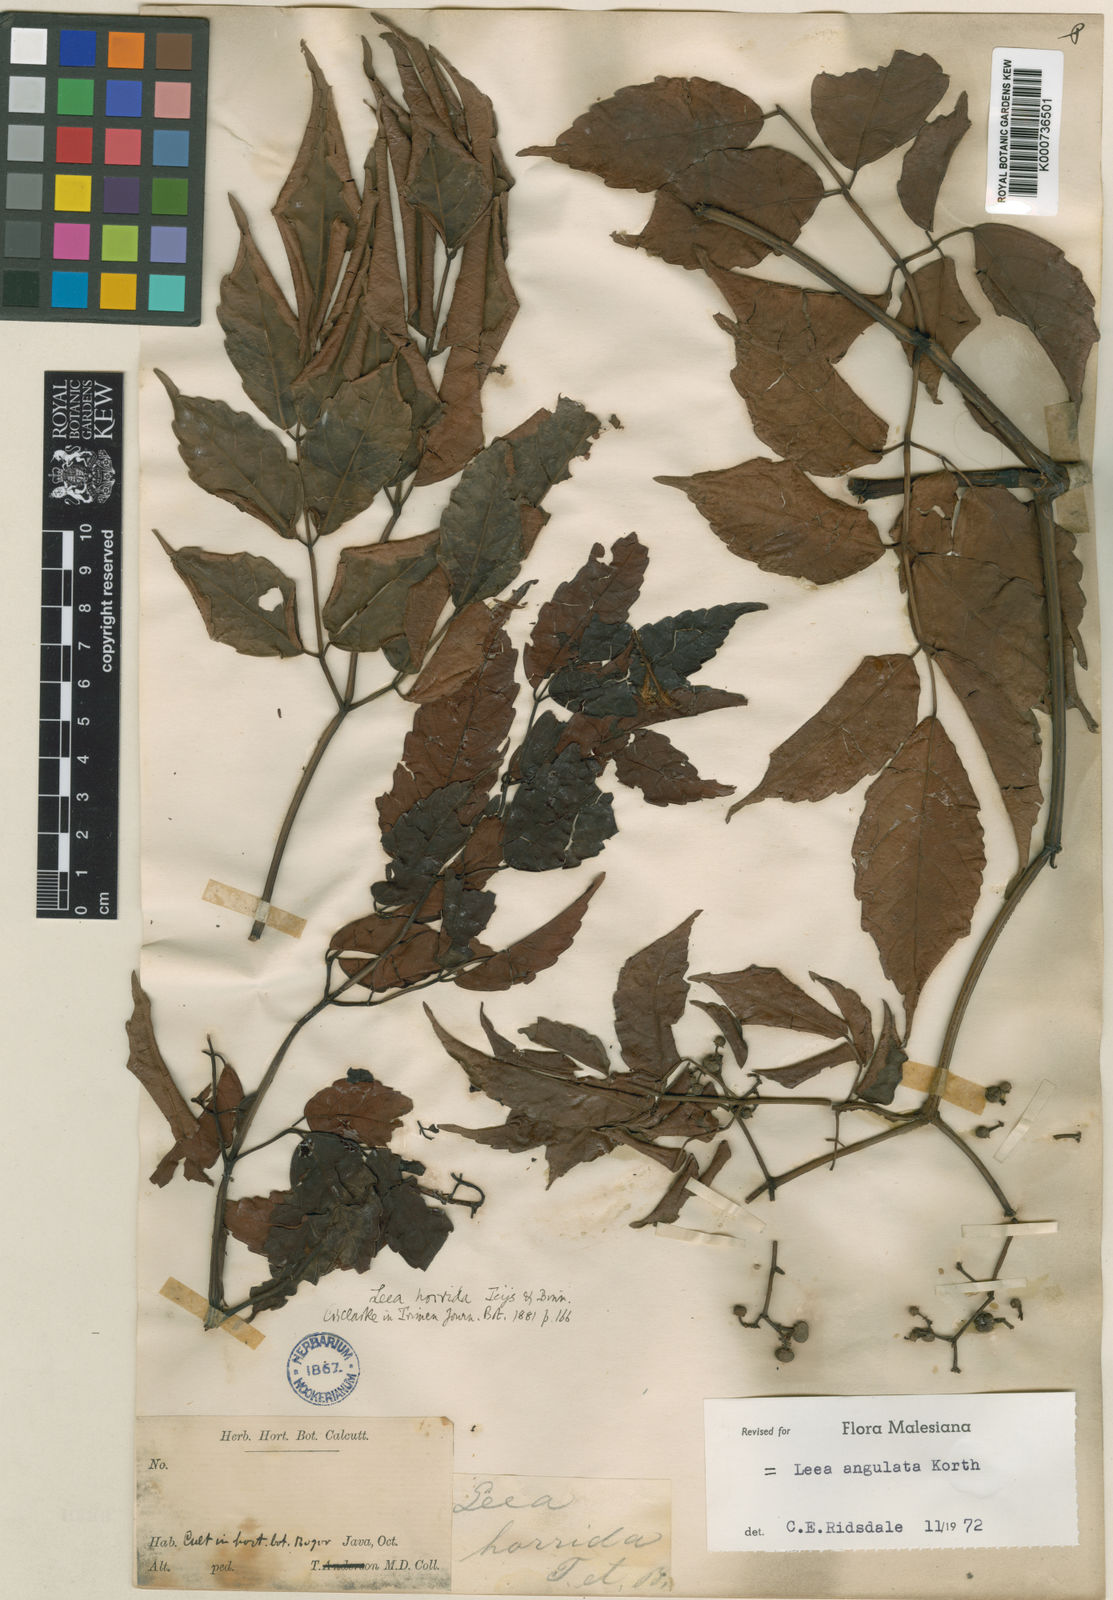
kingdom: Plantae
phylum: Tracheophyta
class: Magnoliopsida
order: Vitales
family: Vitaceae
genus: Leea
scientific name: Leea
